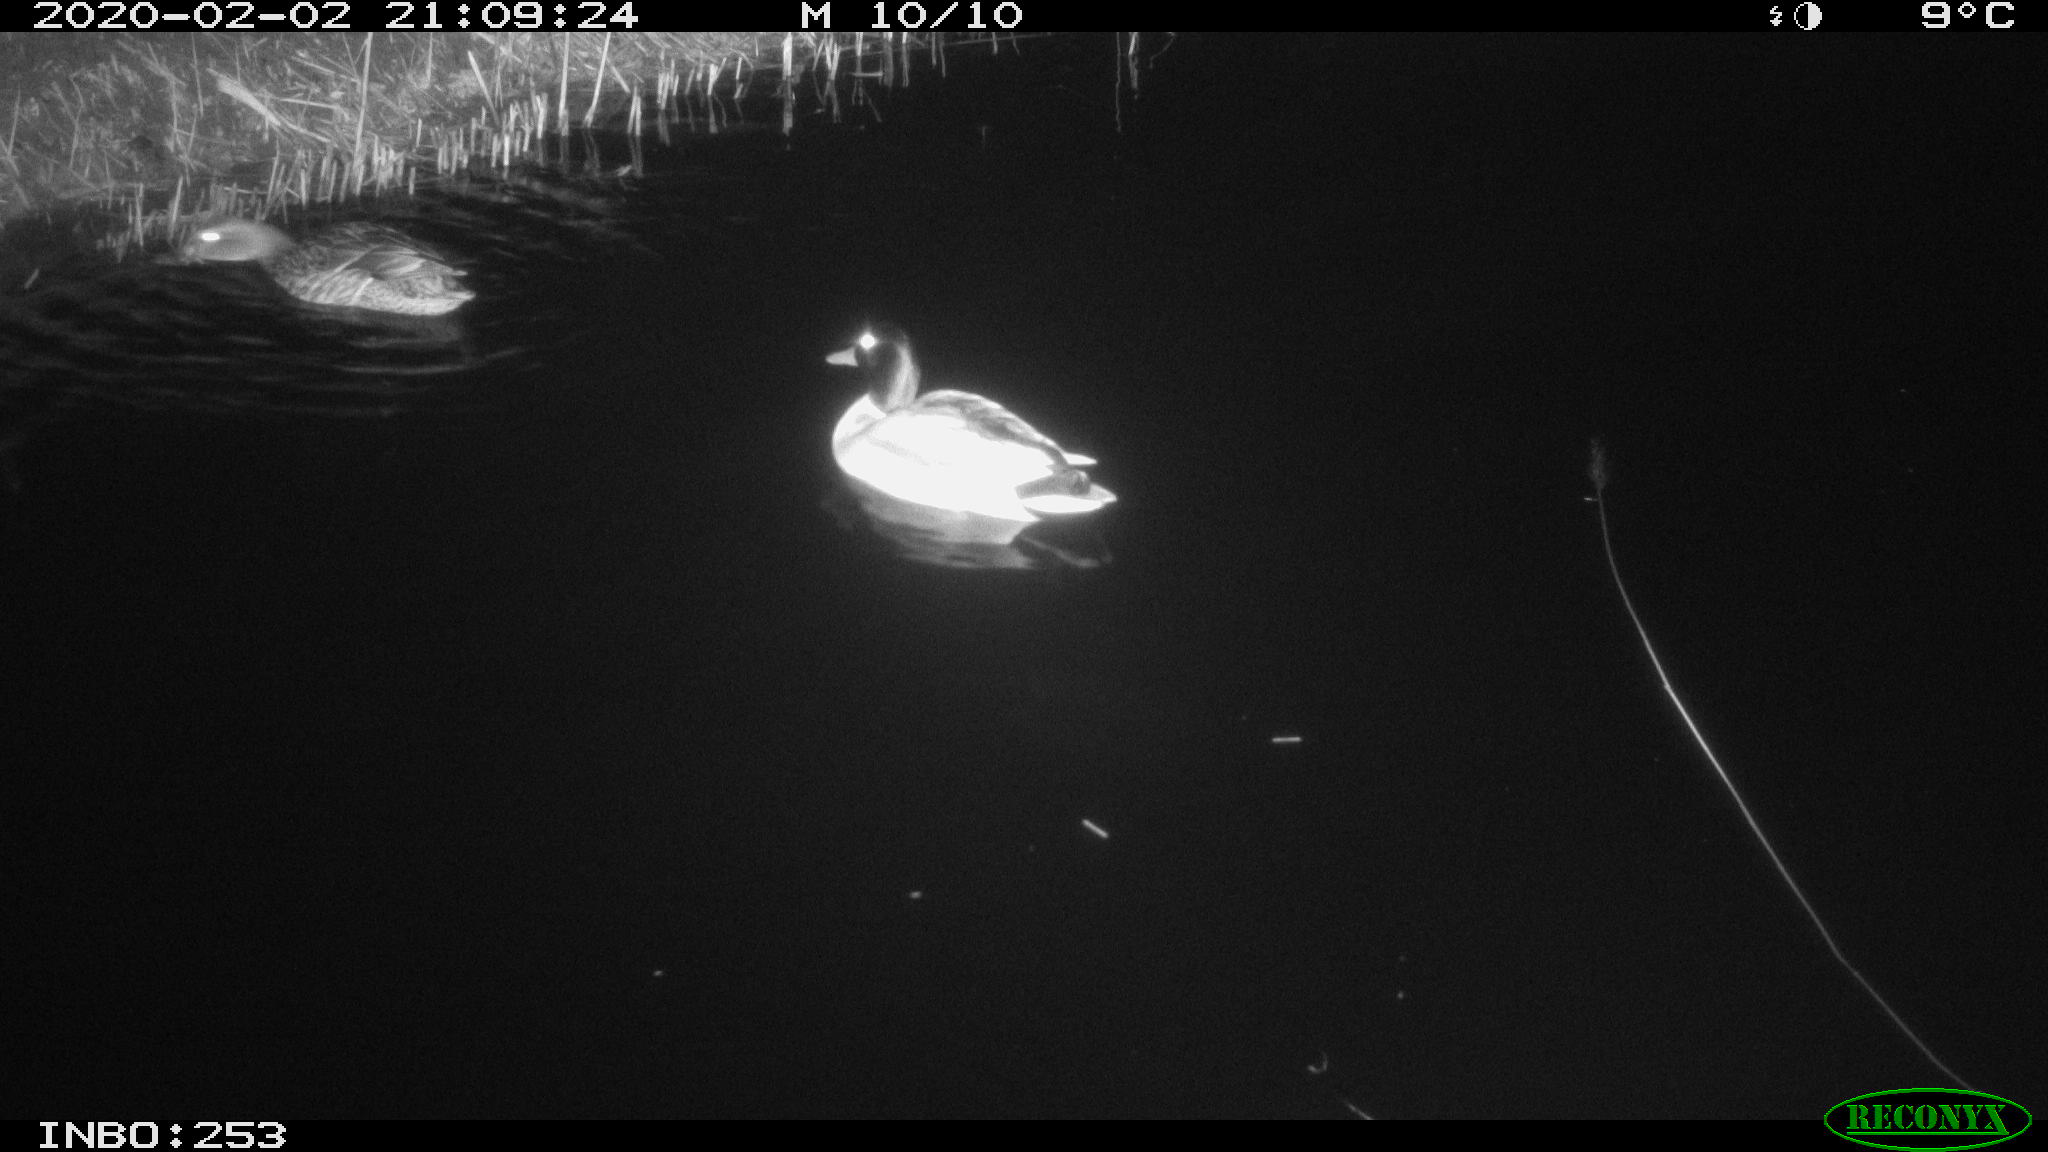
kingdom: Animalia
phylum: Chordata
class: Aves
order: Anseriformes
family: Anatidae
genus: Anas
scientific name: Anas platyrhynchos
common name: Mallard
